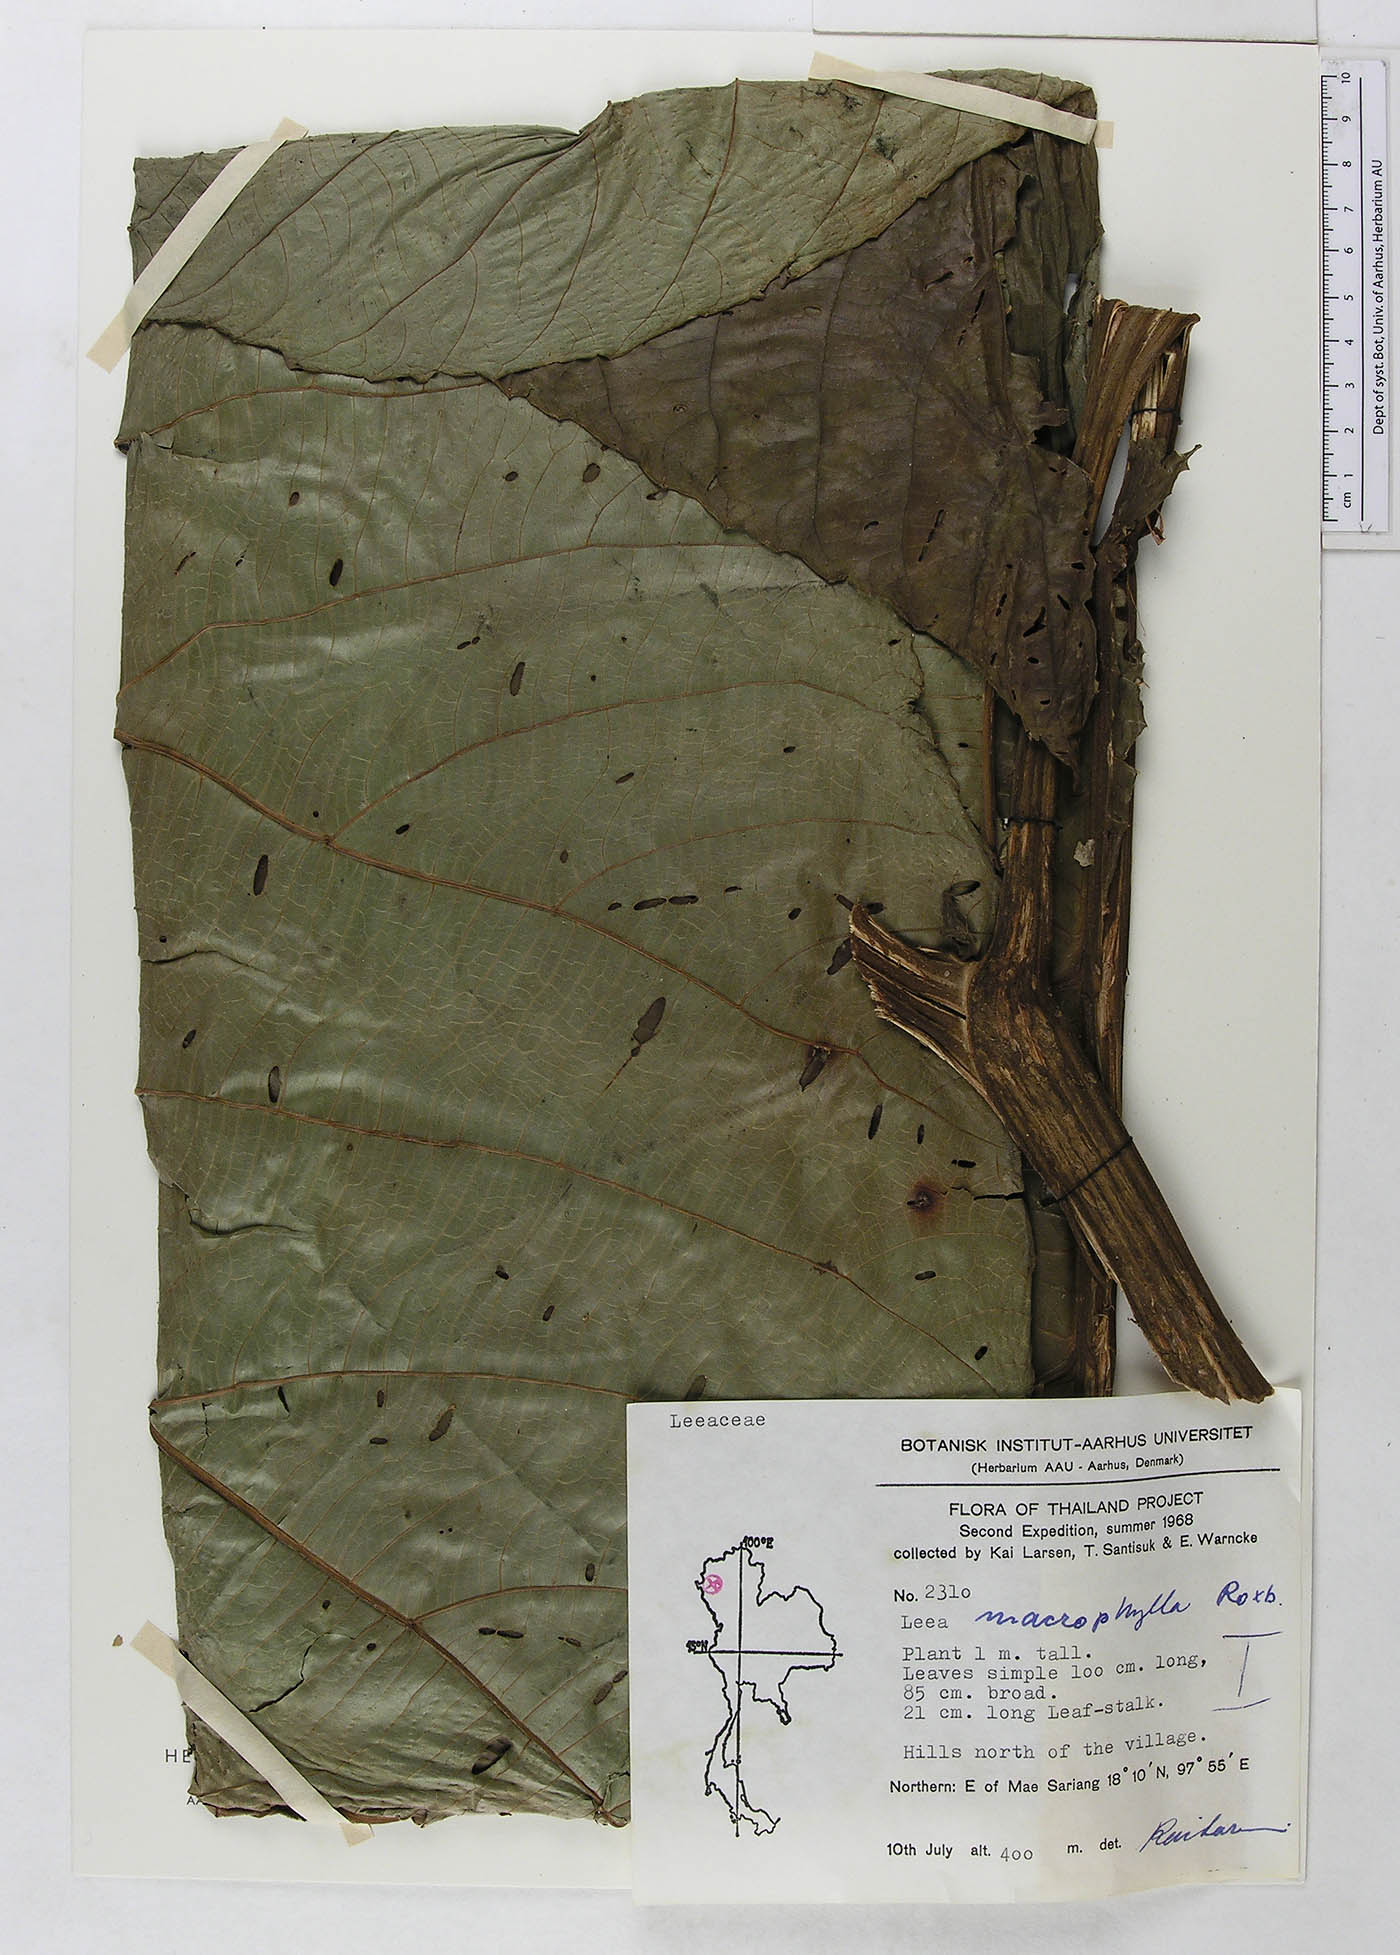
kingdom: Plantae
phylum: Tracheophyta
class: Magnoliopsida
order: Vitales
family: Vitaceae
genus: Leea
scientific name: Leea macrophylla
